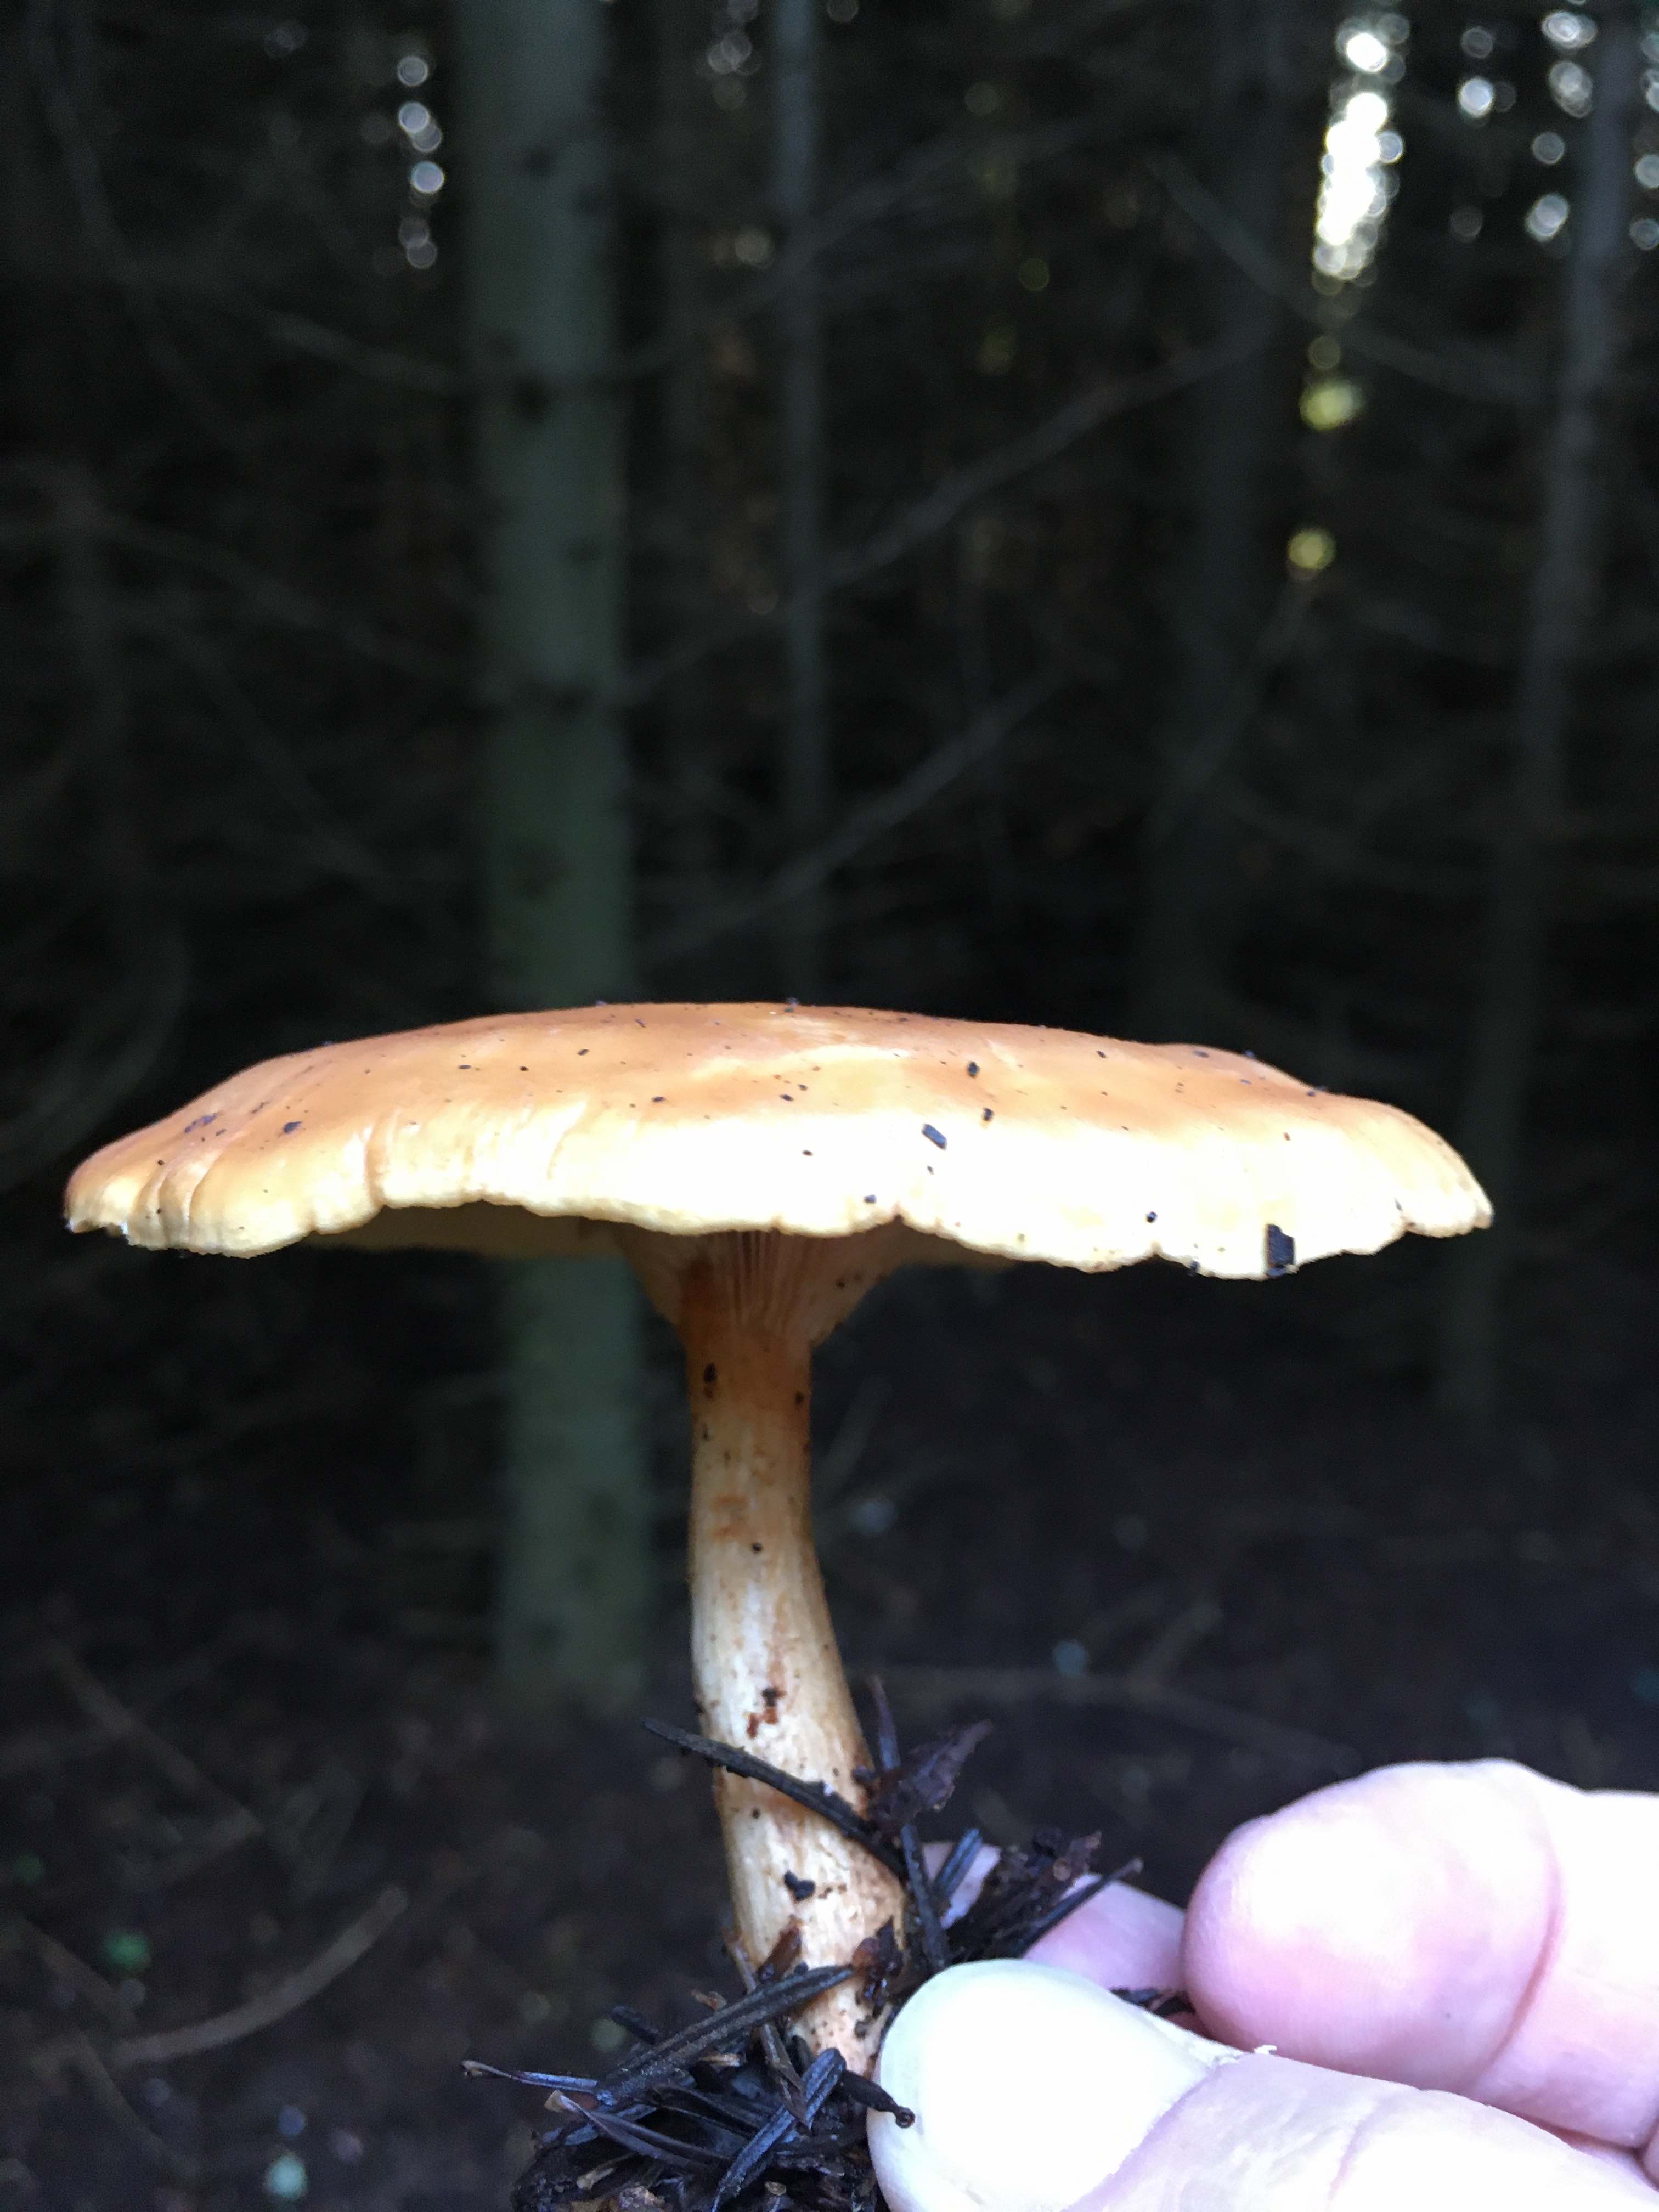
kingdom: Fungi
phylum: Basidiomycota
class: Agaricomycetes
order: Agaricales
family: Tricholomataceae
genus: Paralepista
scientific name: Paralepista flaccida
